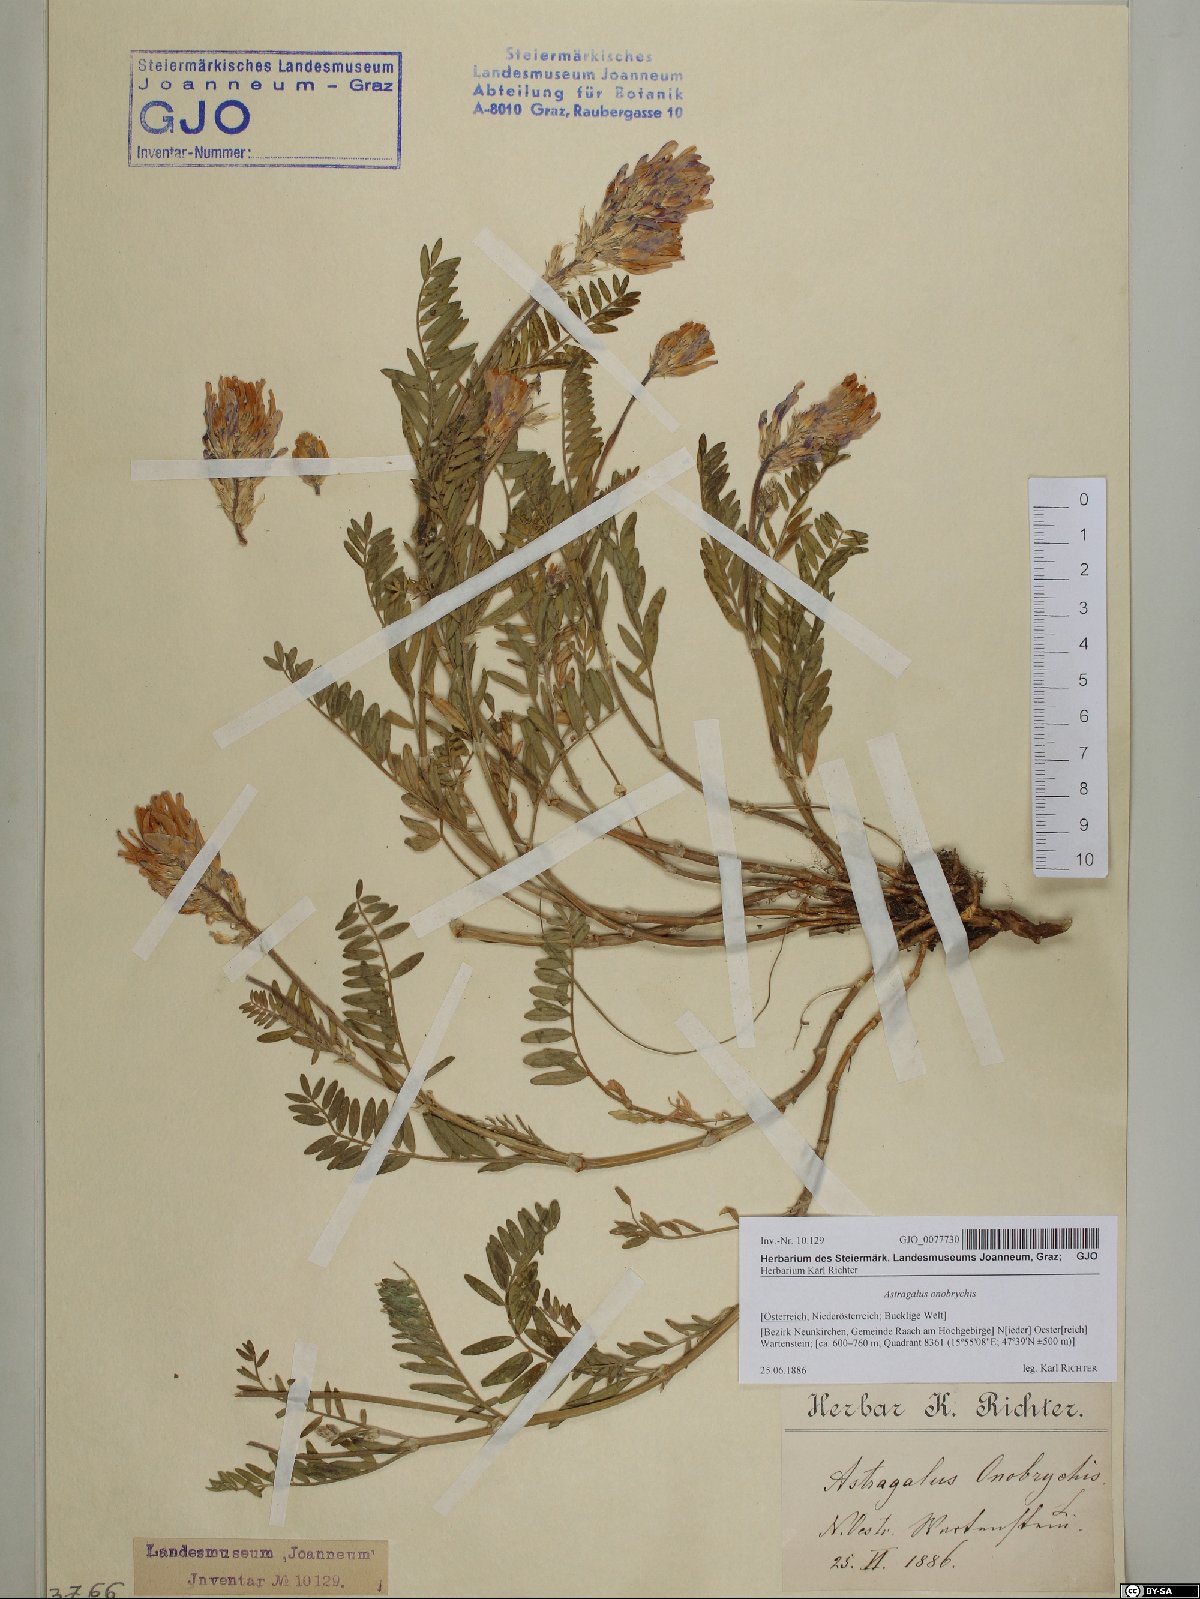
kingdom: Plantae
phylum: Tracheophyta
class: Magnoliopsida
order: Fabales
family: Fabaceae
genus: Astragalus
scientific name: Astragalus onobrychis
